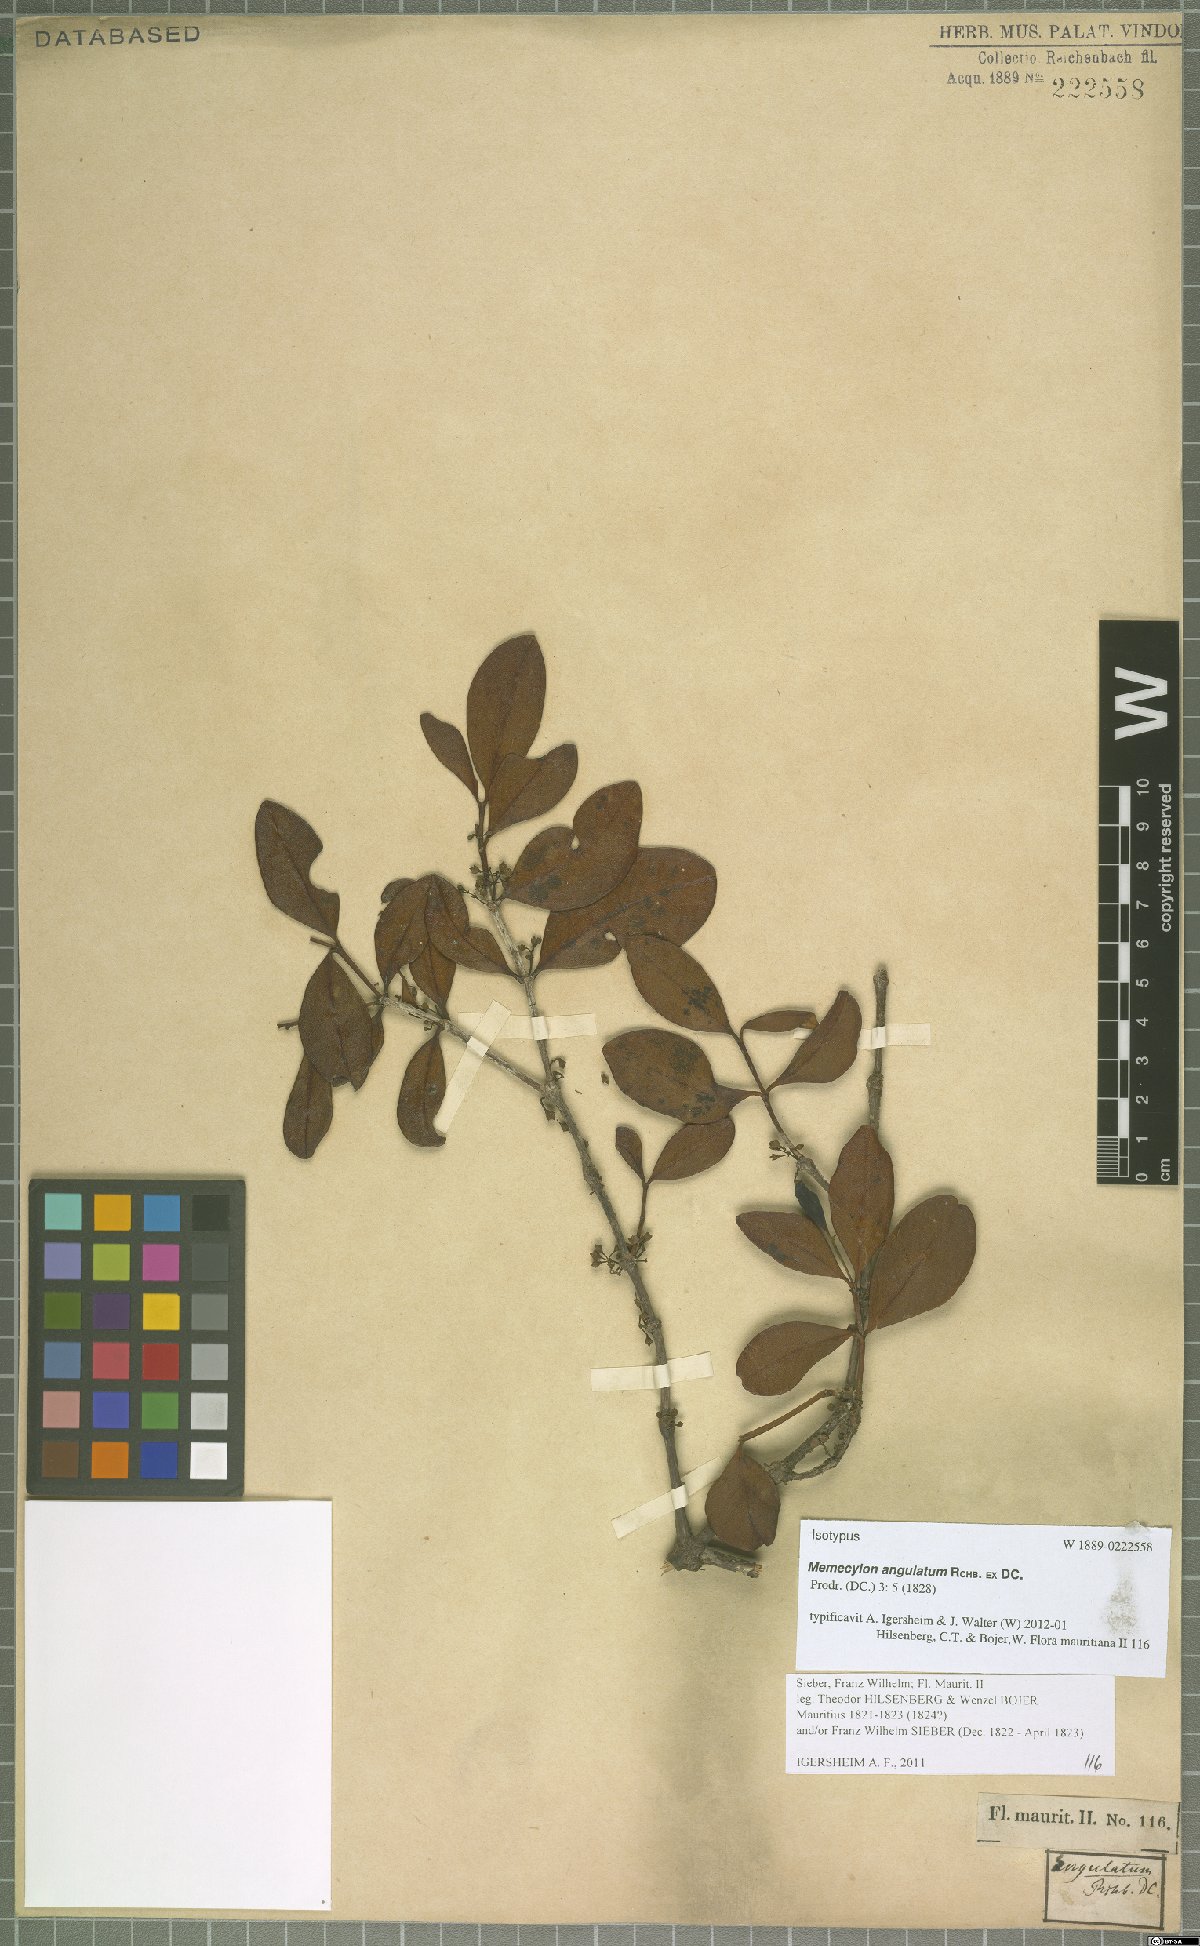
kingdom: Plantae
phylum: Tracheophyta
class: Magnoliopsida
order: Myrtales
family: Melastomataceae
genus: Memecylon
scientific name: Memecylon ovatifolium
